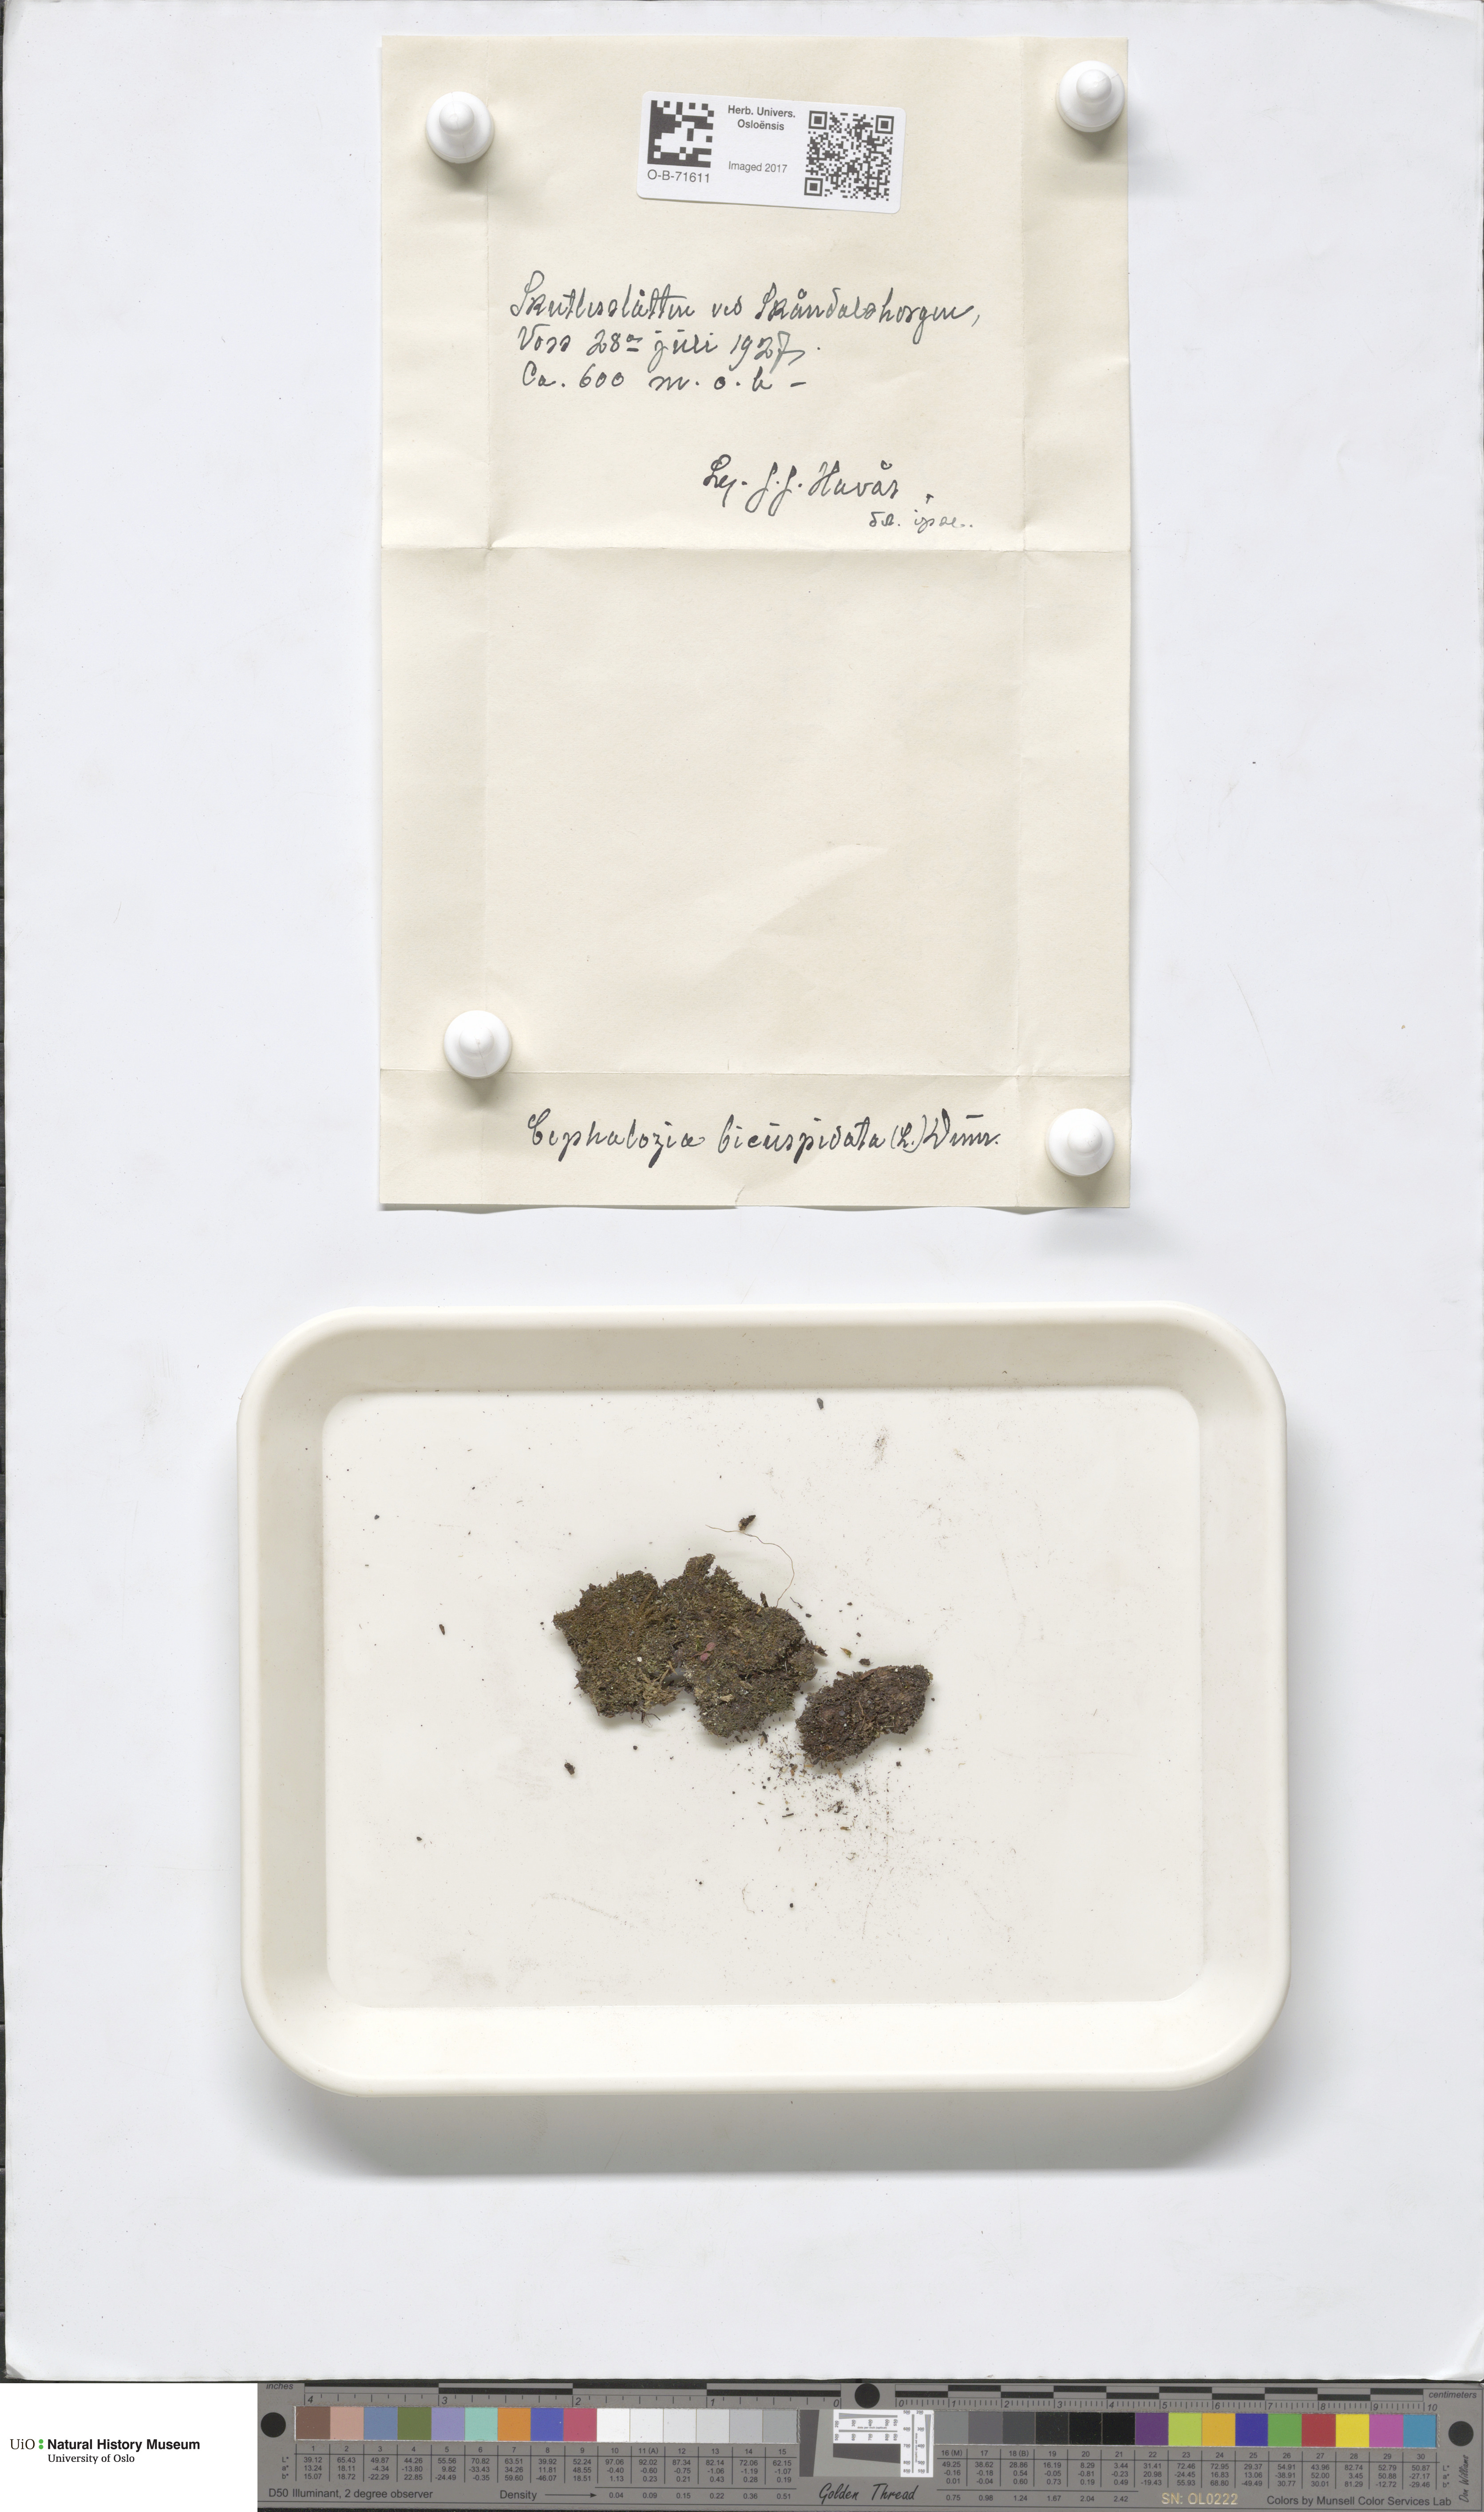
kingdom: Plantae
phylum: Marchantiophyta
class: Jungermanniopsida
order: Jungermanniales
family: Cephaloziaceae
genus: Cephalozia
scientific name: Cephalozia bicuspidata
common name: Two-horned pincerwort
